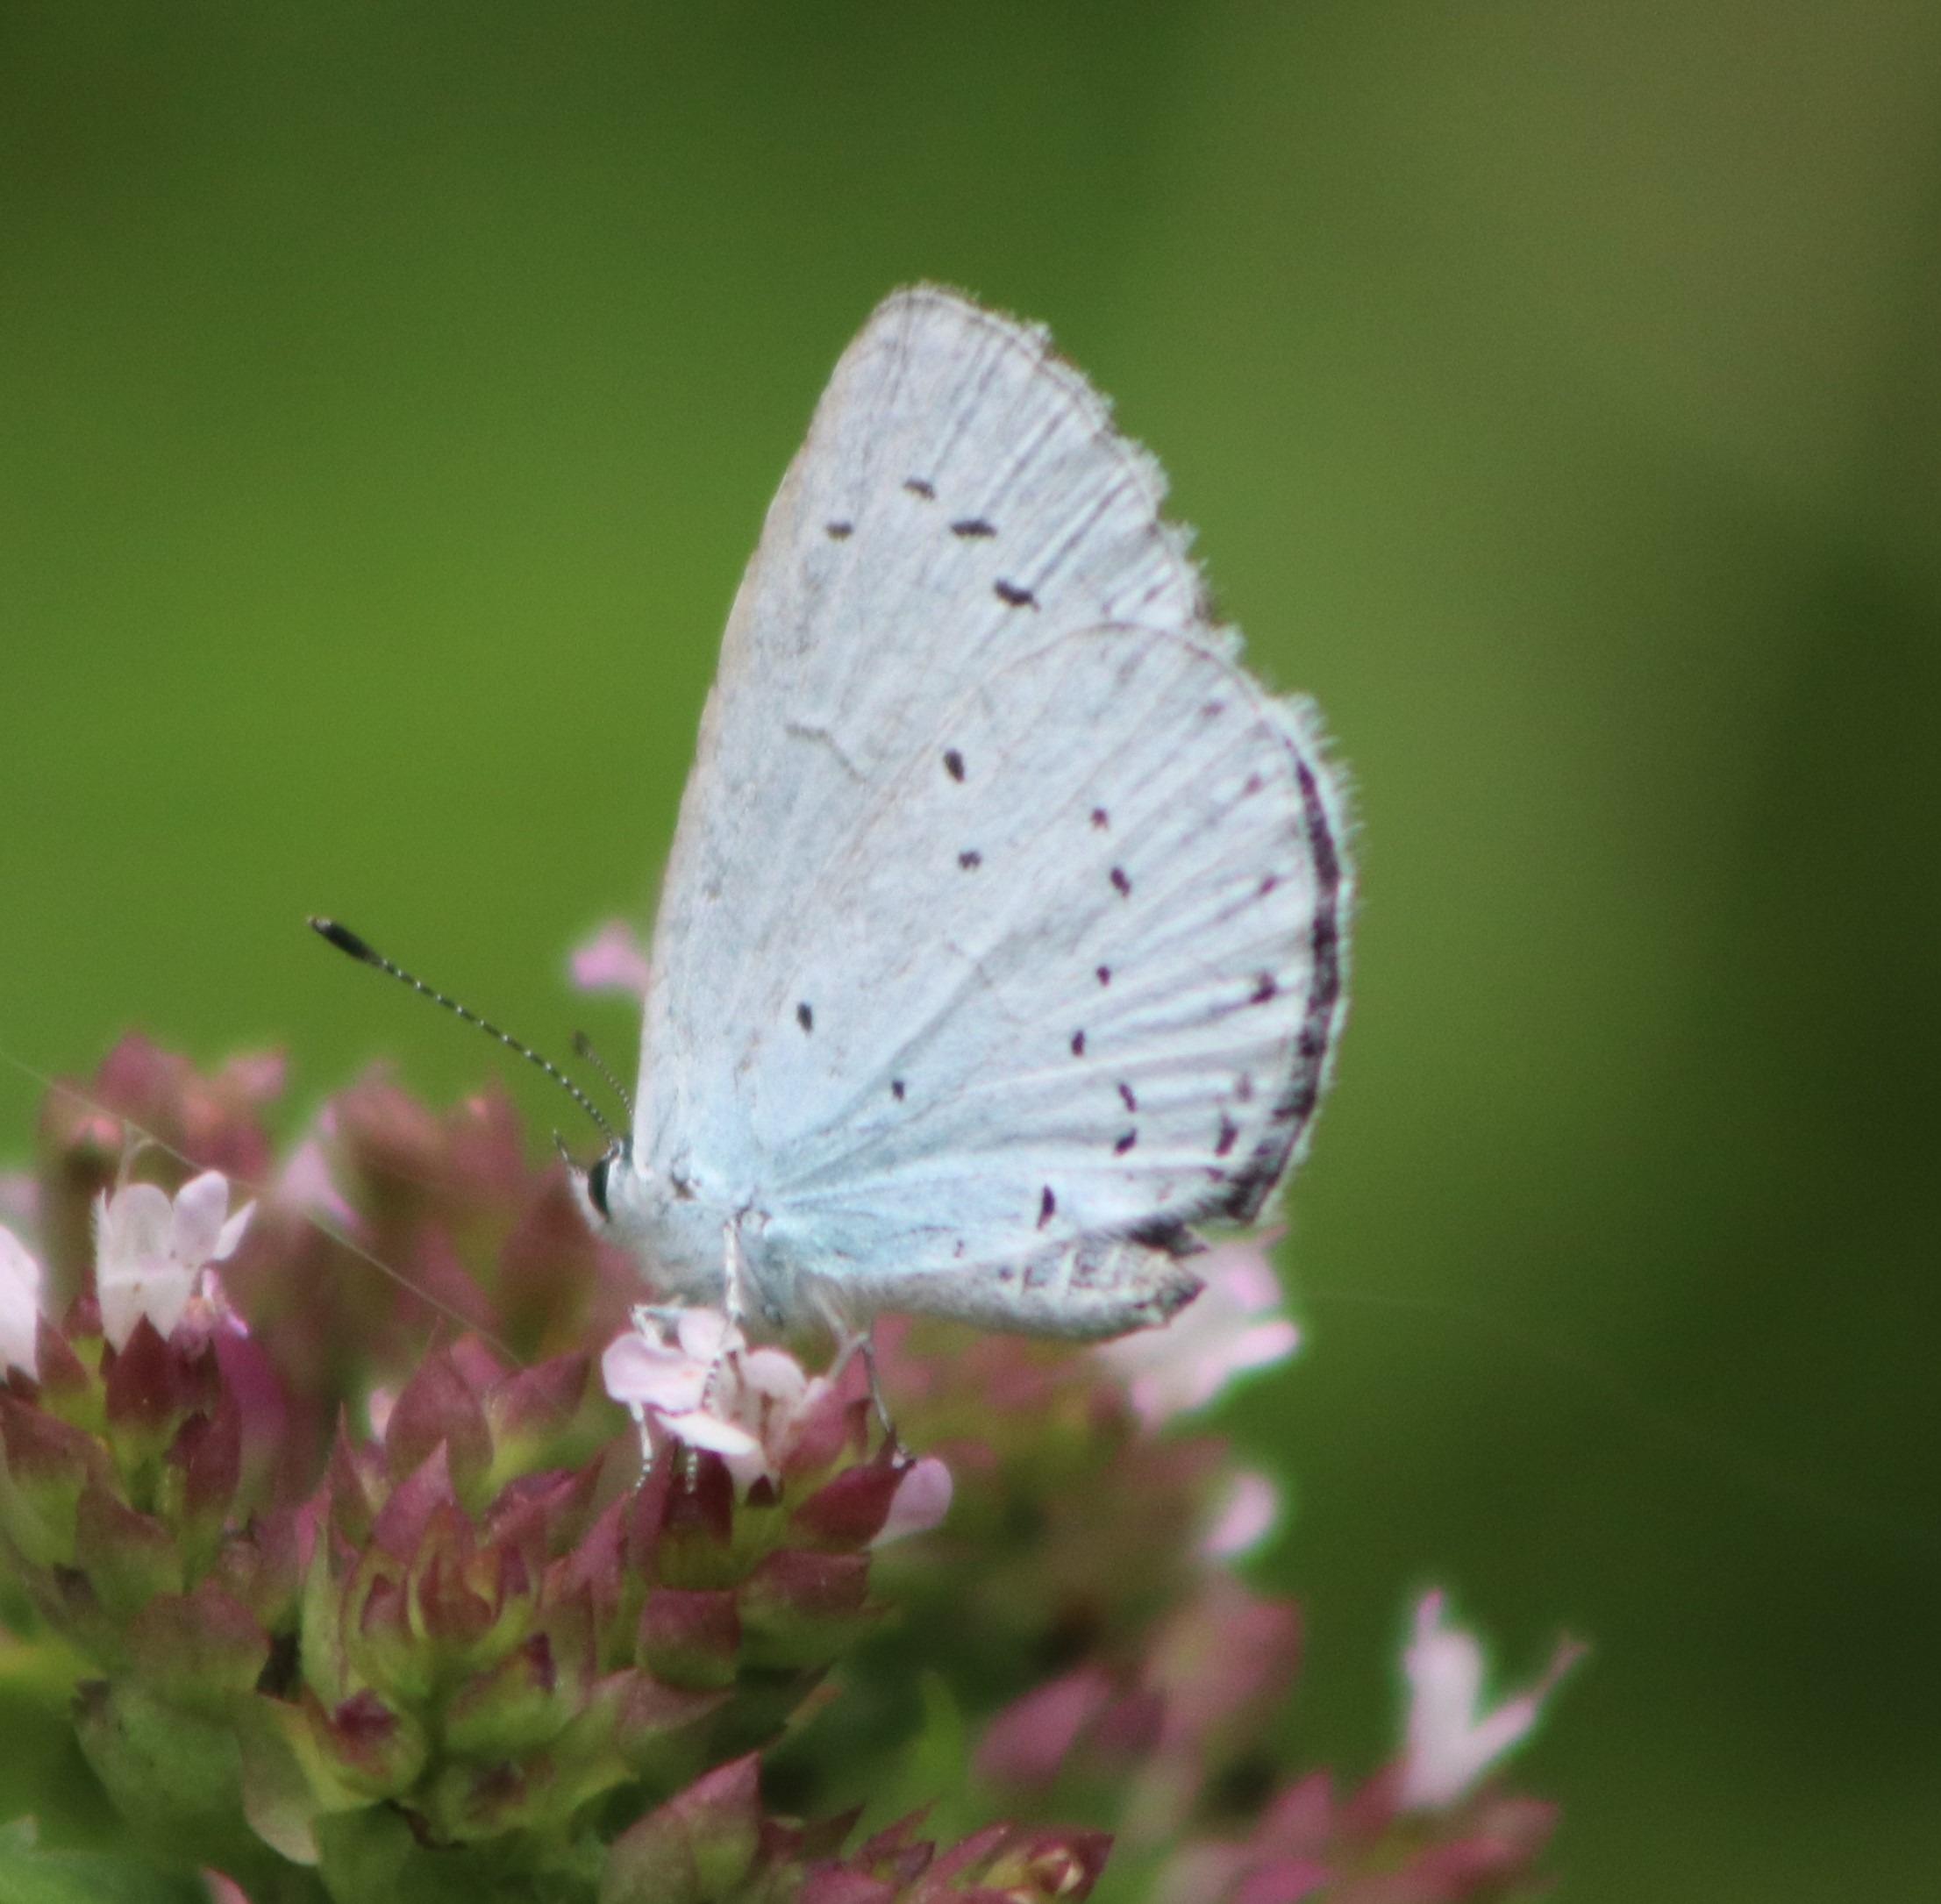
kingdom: Animalia
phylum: Arthropoda
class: Insecta
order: Lepidoptera
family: Lycaenidae
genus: Celastrina
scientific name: Celastrina argiolus
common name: Skovblåfugl
